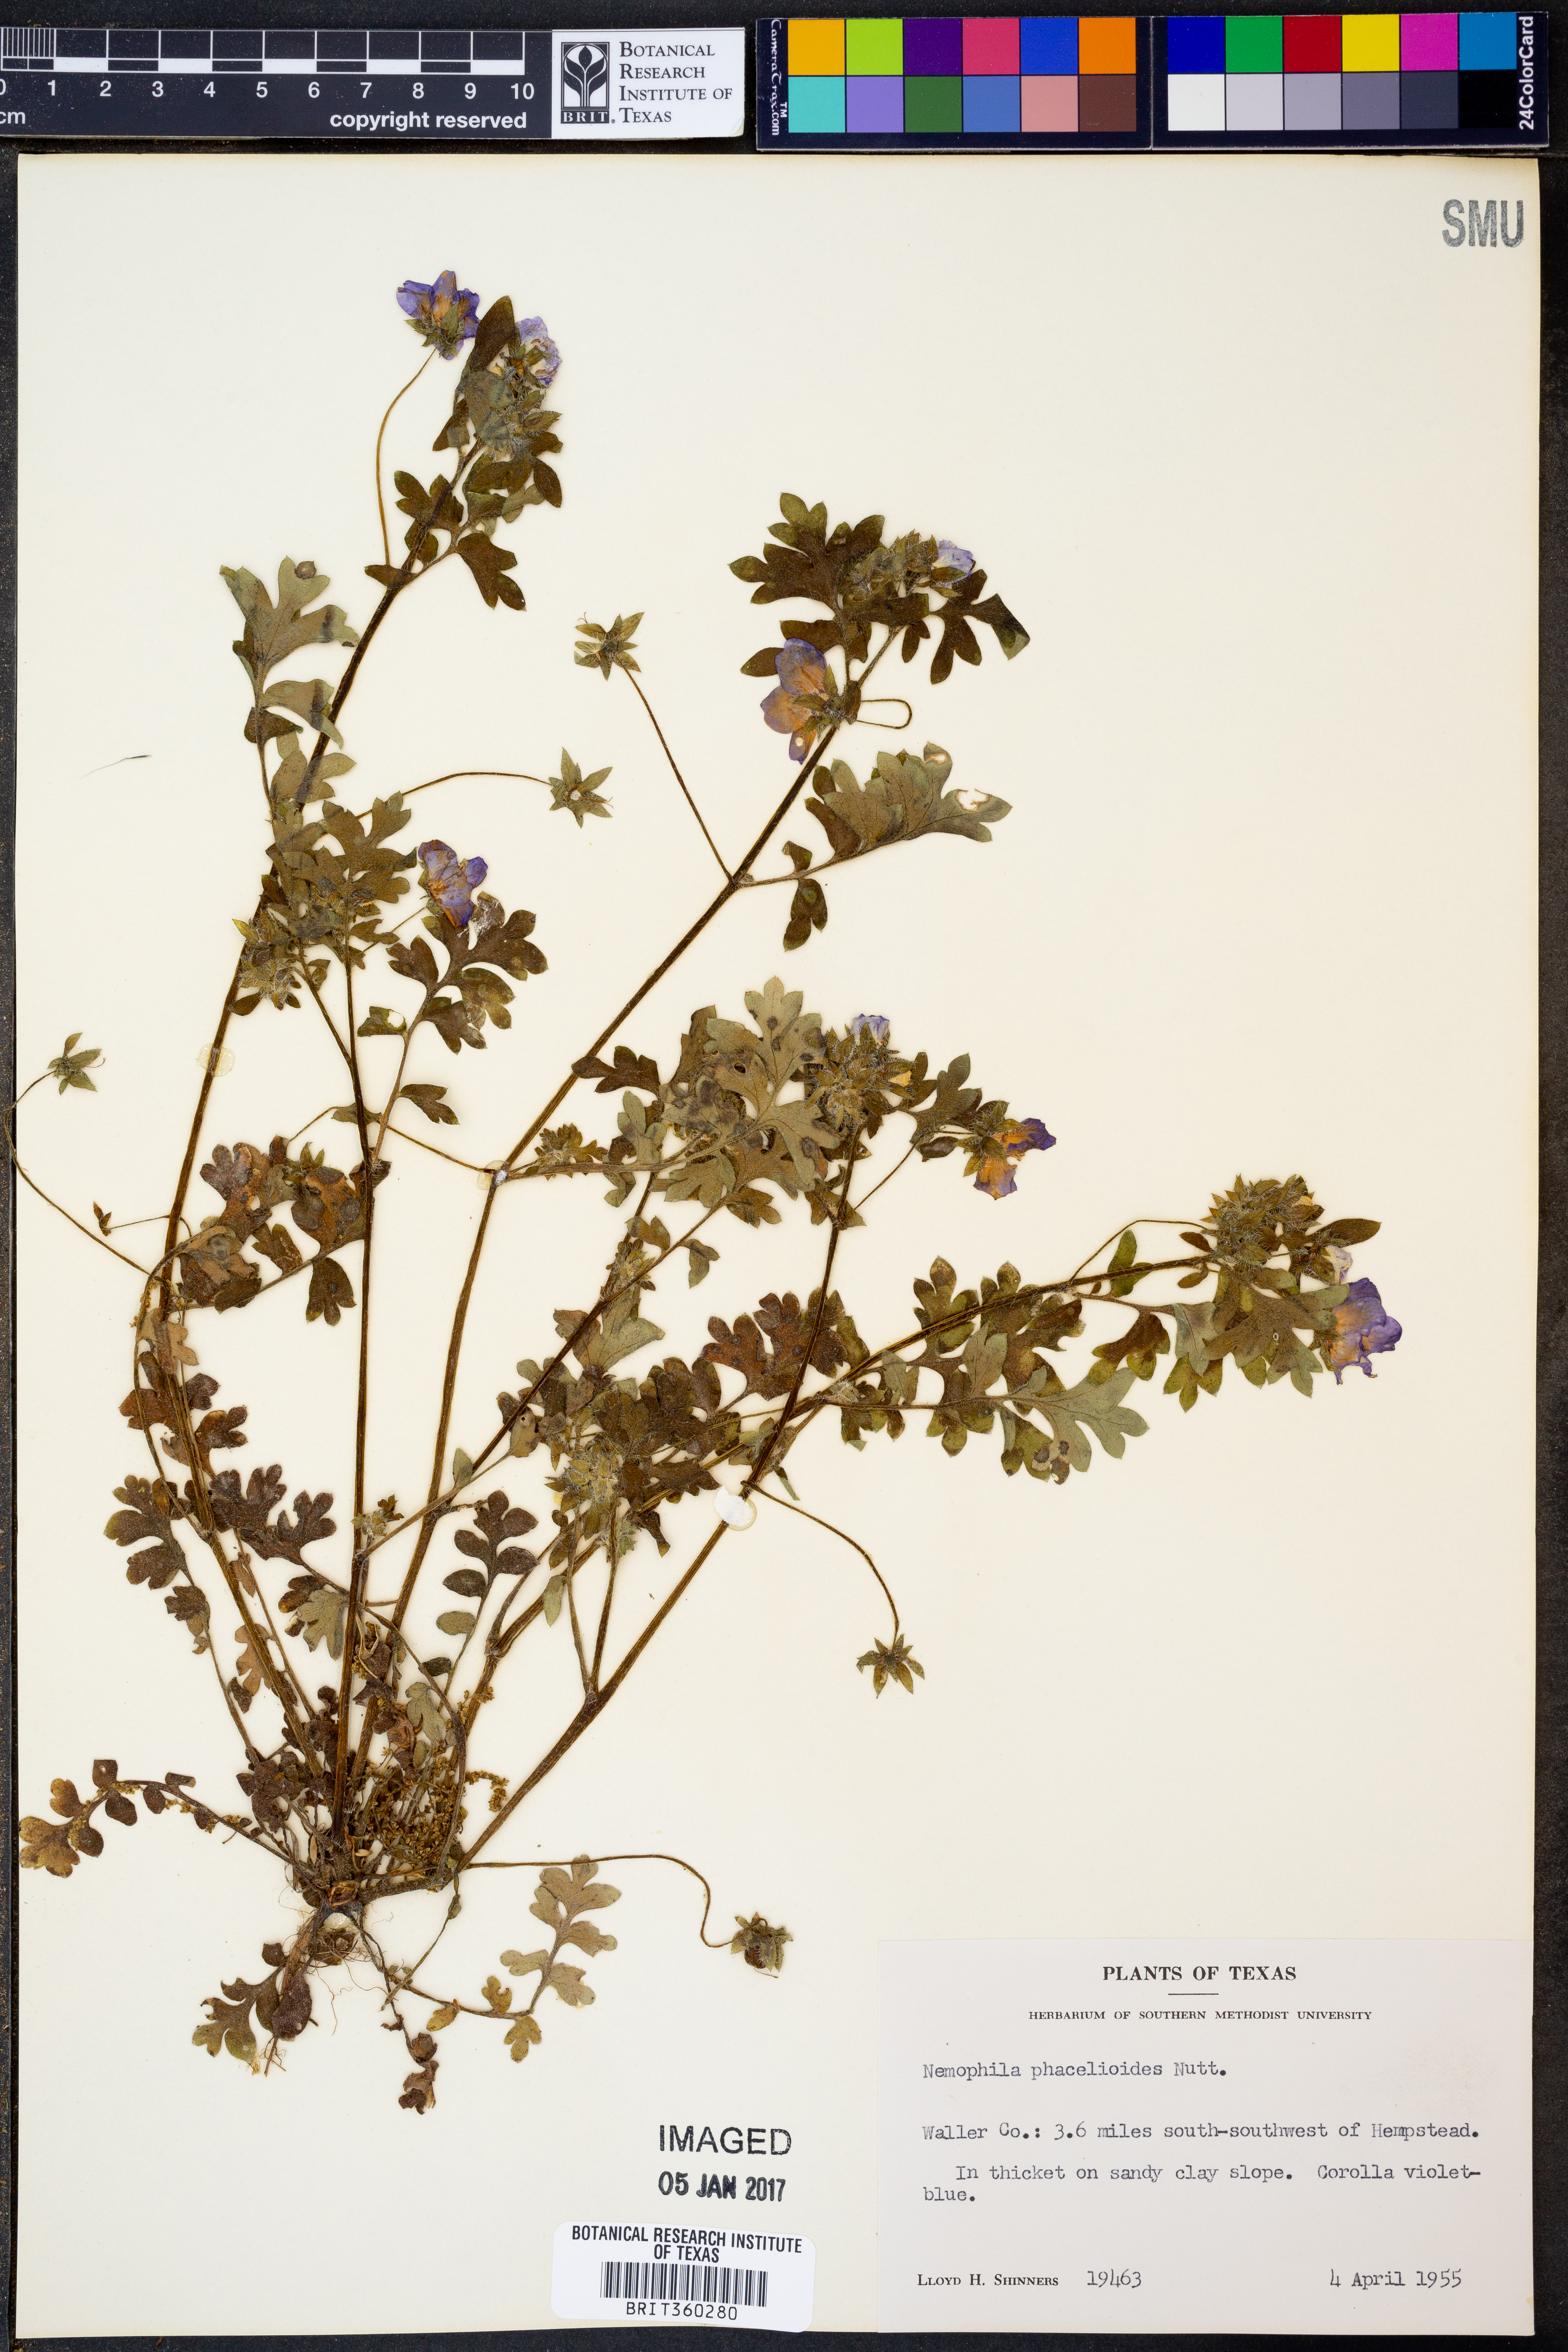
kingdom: Plantae
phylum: Tracheophyta
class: Magnoliopsida
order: Boraginales
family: Hydrophyllaceae
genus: Nemophila
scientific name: Nemophila phacelioides
